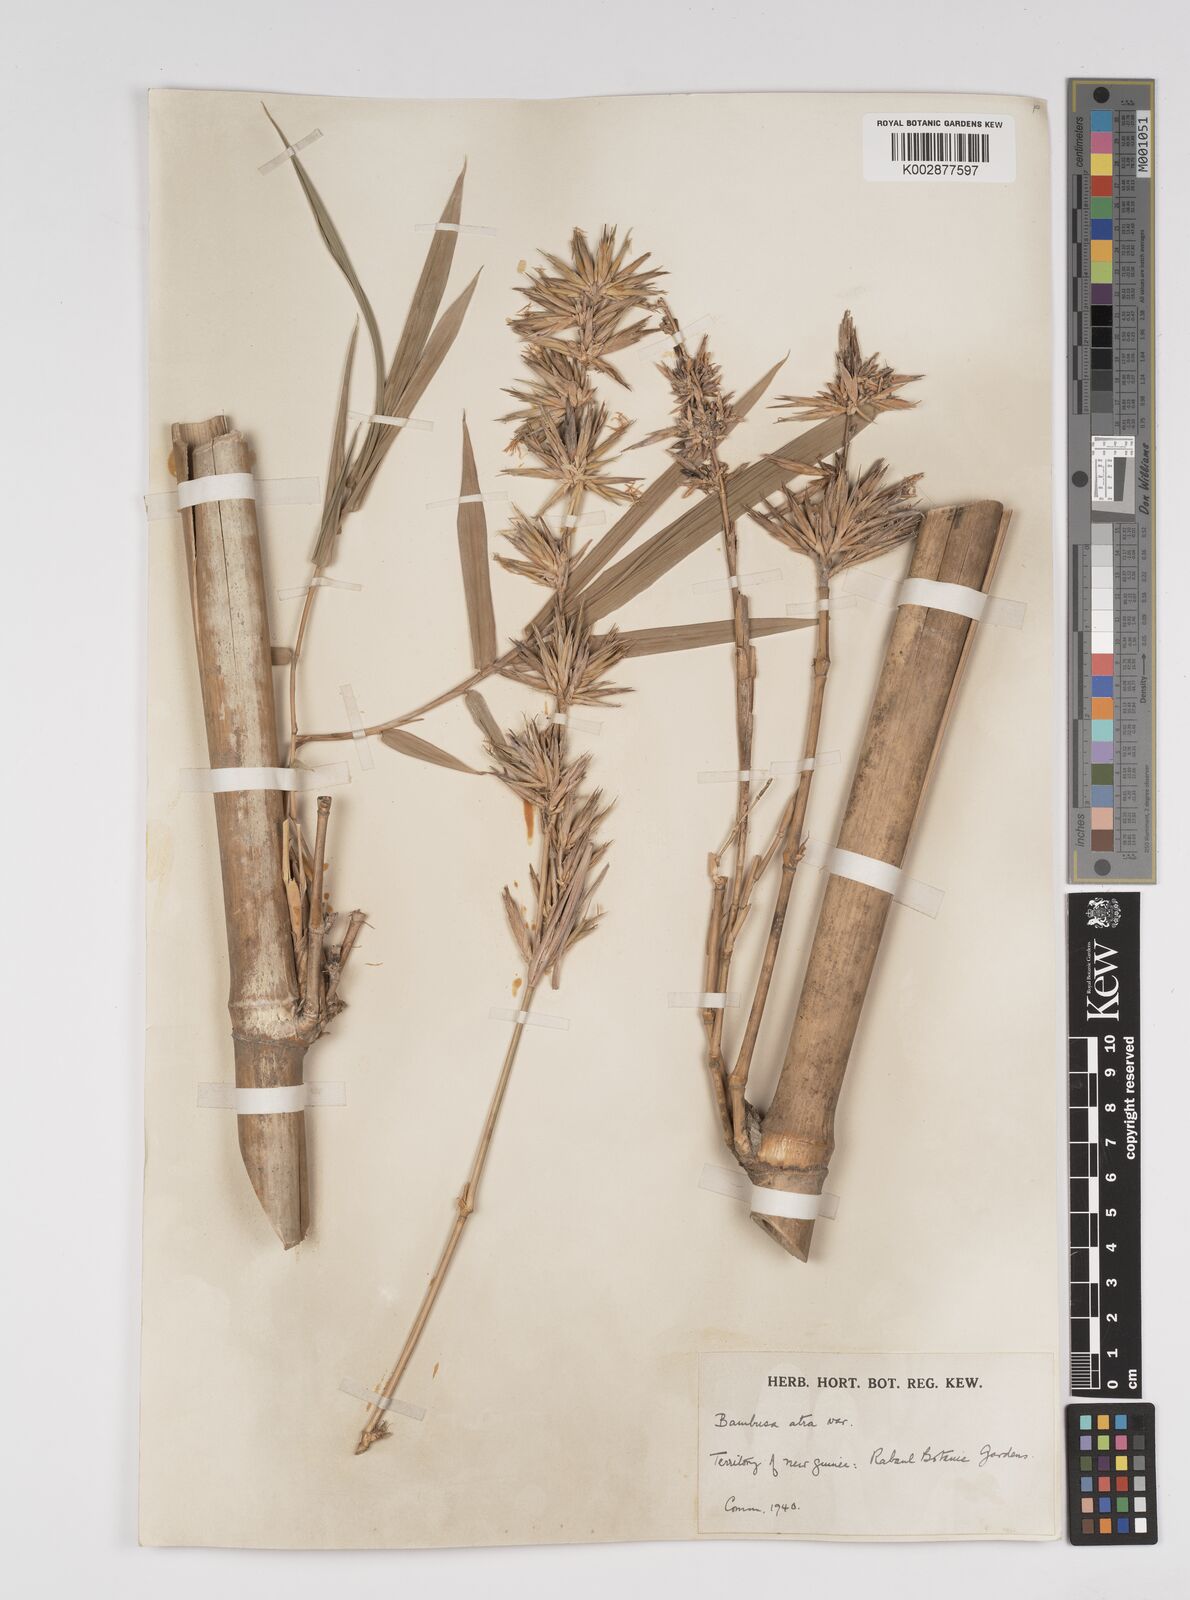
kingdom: Plantae
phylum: Tracheophyta
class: Liliopsida
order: Poales
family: Poaceae
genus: Bambusa
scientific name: Bambusa macrolemma
